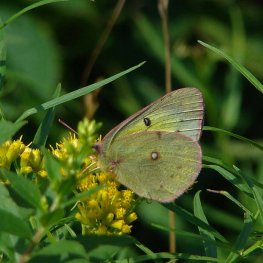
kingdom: Animalia
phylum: Arthropoda
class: Insecta
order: Lepidoptera
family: Pieridae
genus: Colias
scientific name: Colias eurytheme
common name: Orange Sulphur
